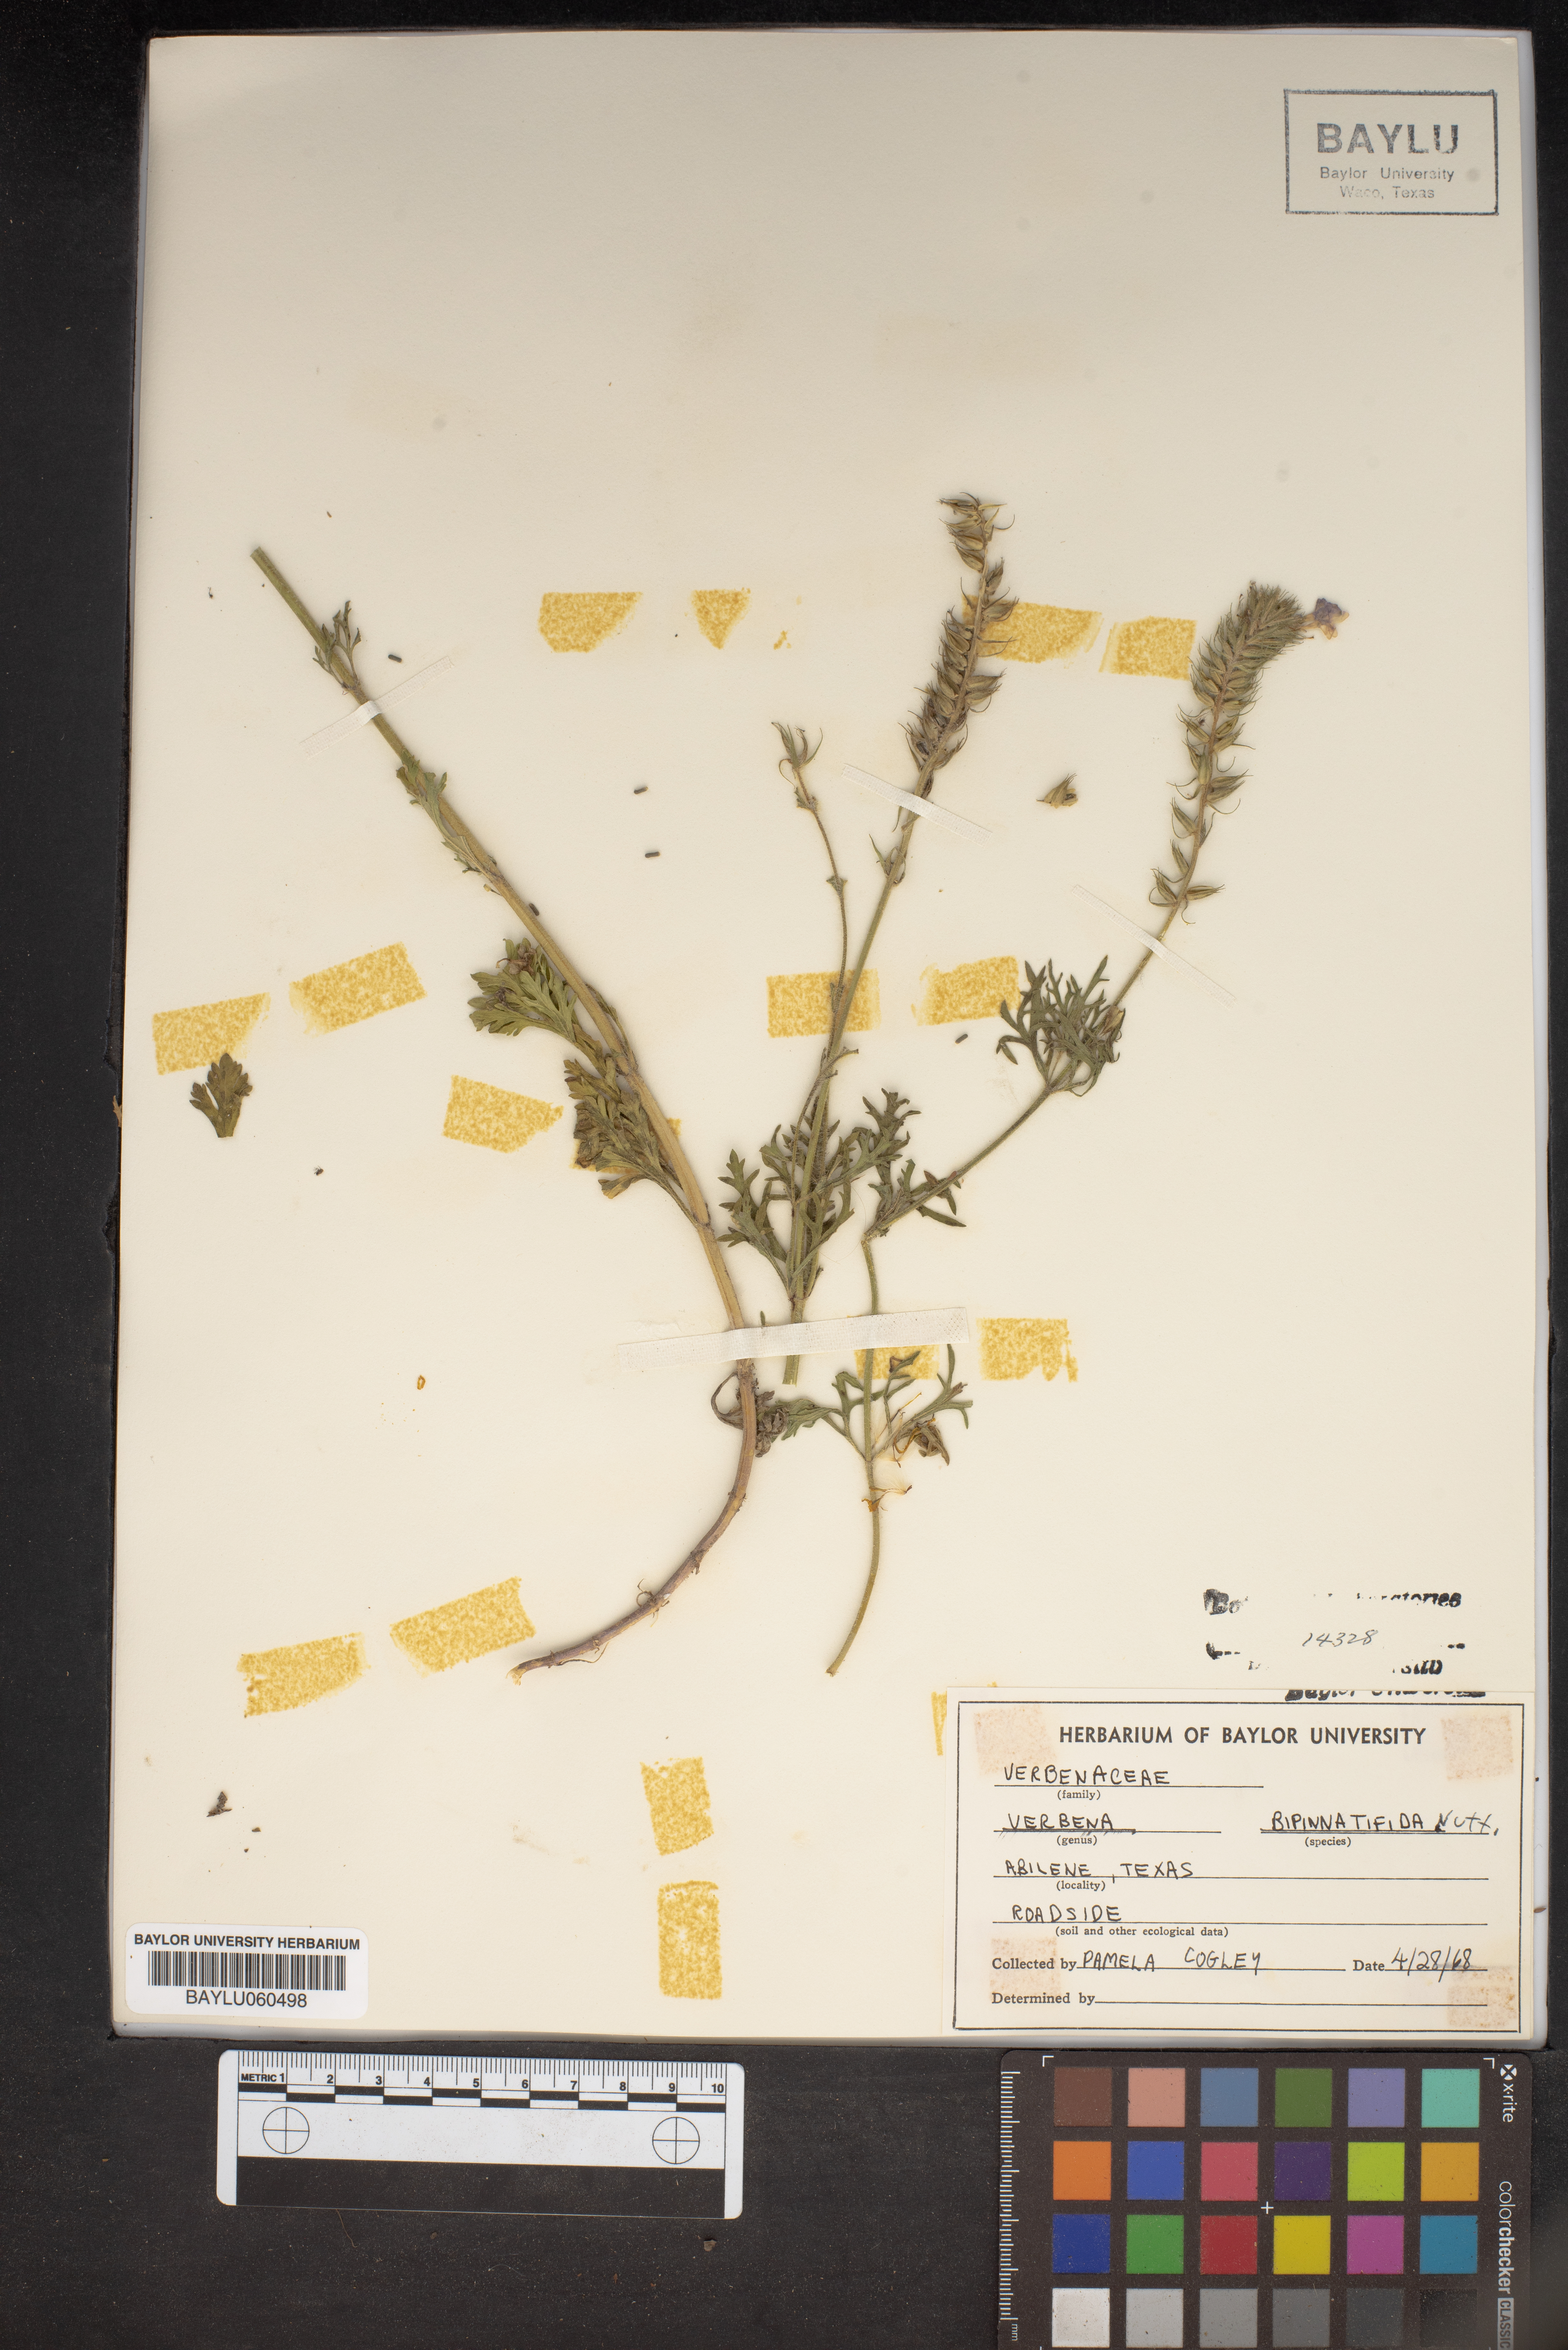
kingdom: Plantae
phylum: Tracheophyta
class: Magnoliopsida
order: Lamiales
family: Verbenaceae
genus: Verbena
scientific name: Verbena bipinnatifida
